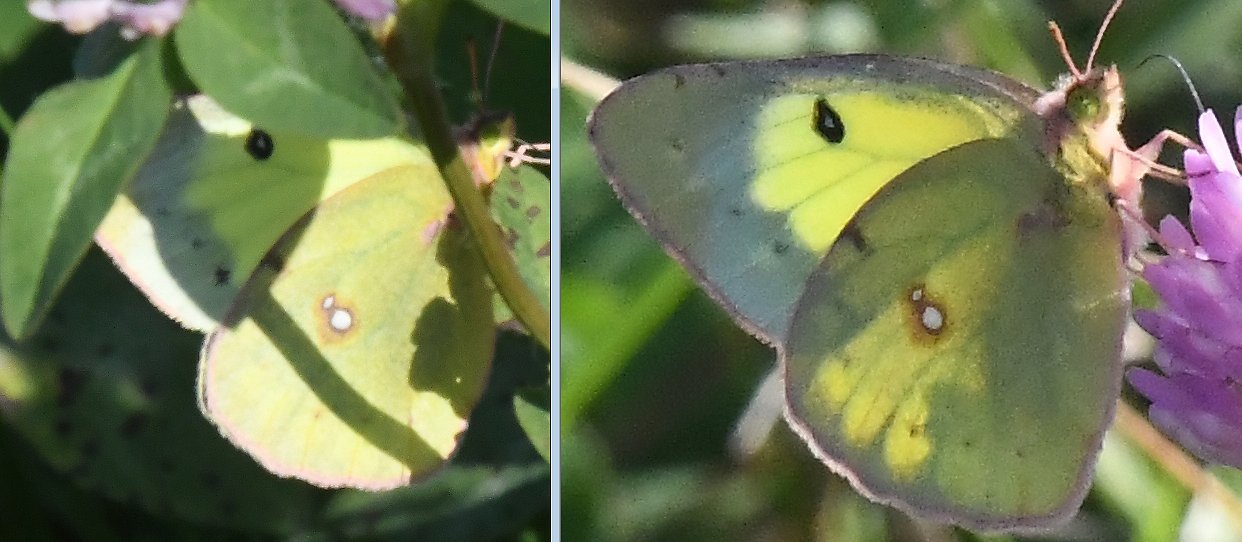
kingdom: Animalia
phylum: Arthropoda
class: Insecta
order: Lepidoptera
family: Pieridae
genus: Colias
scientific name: Colias philodice
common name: Clouded Sulphur
